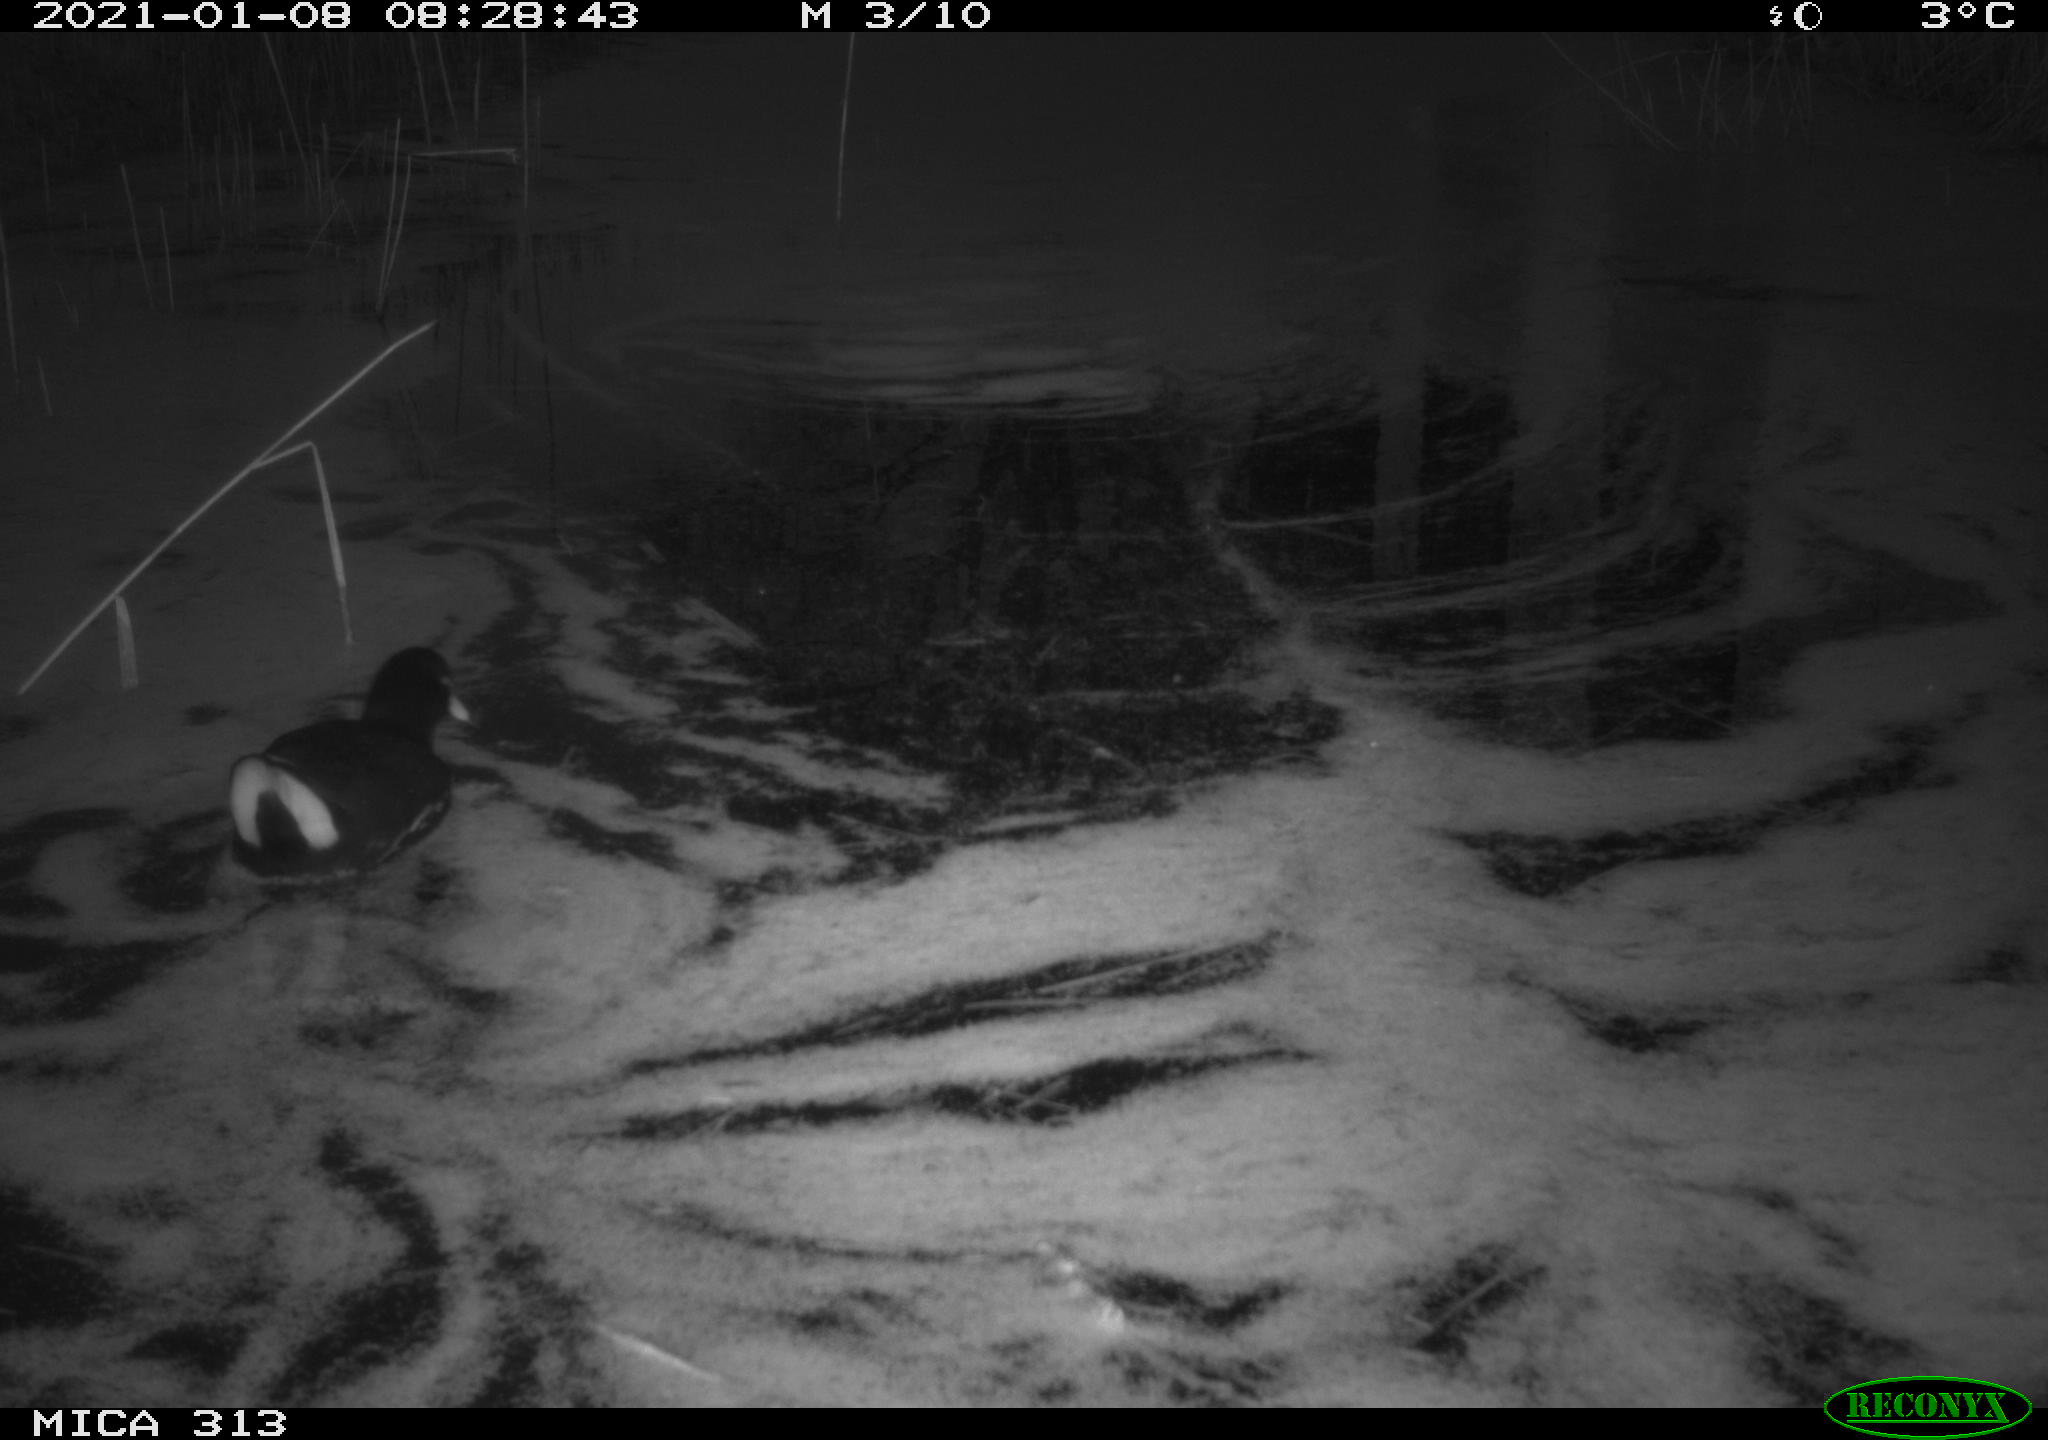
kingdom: Animalia
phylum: Chordata
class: Aves
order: Gruiformes
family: Rallidae
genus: Gallinula
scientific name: Gallinula chloropus
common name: Common moorhen
